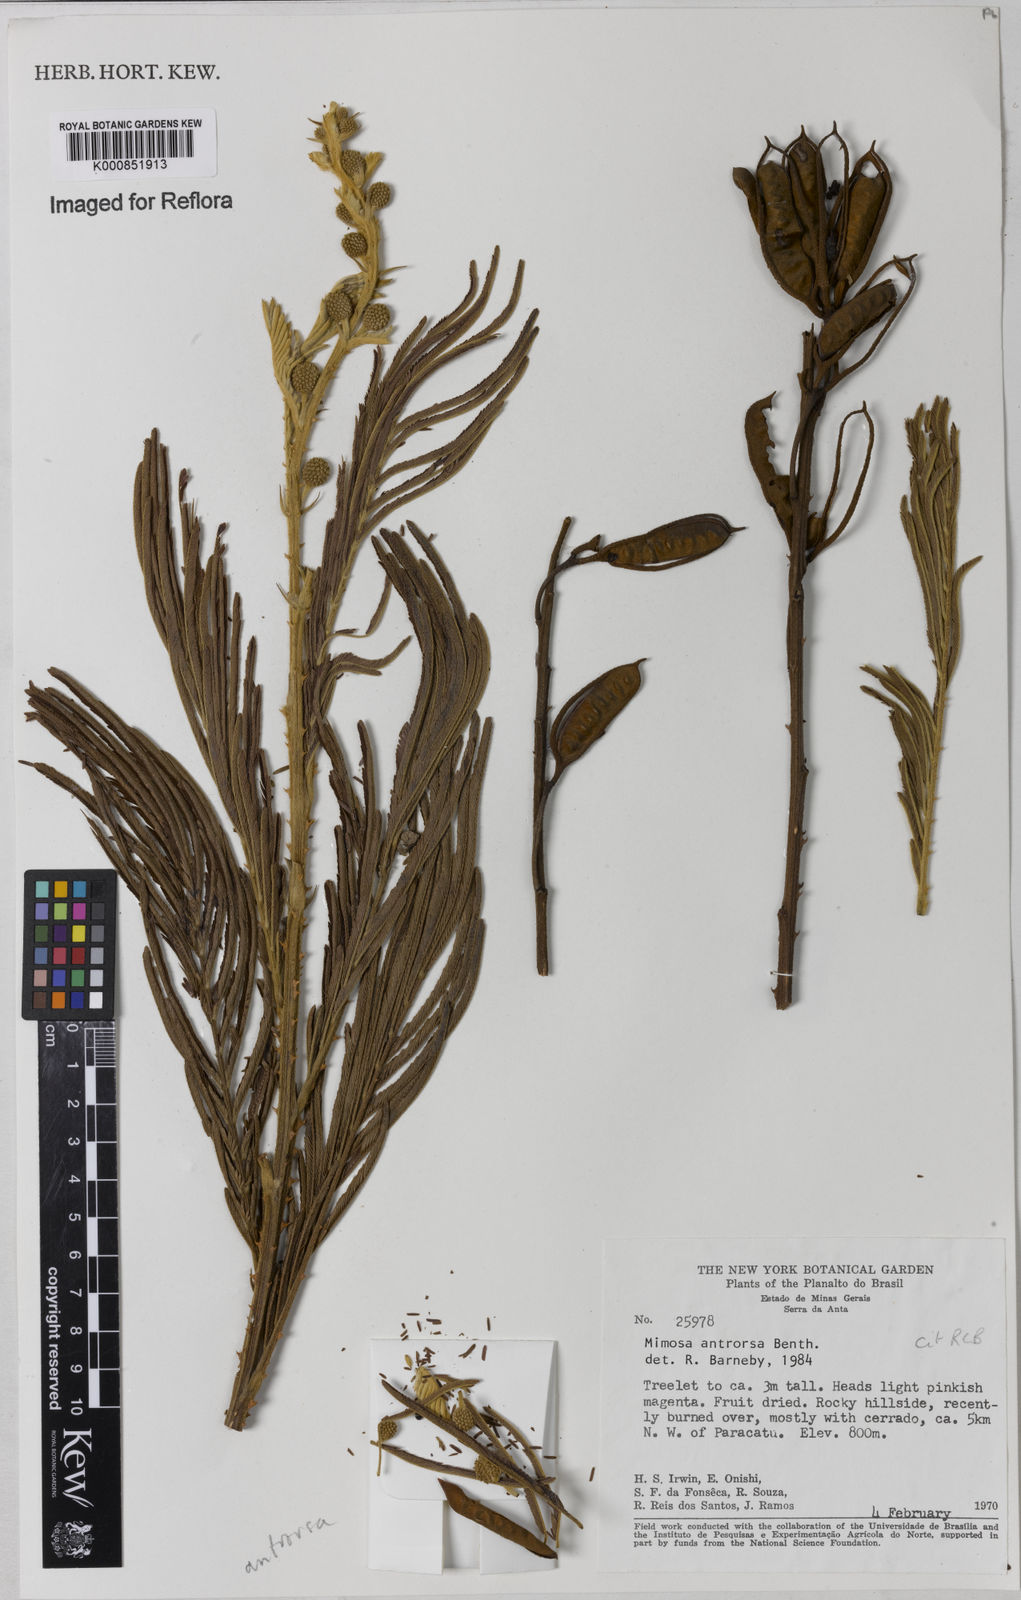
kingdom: Plantae
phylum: Tracheophyta
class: Magnoliopsida
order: Fabales
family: Fabaceae
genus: Mimosa
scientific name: Mimosa antrorsa
